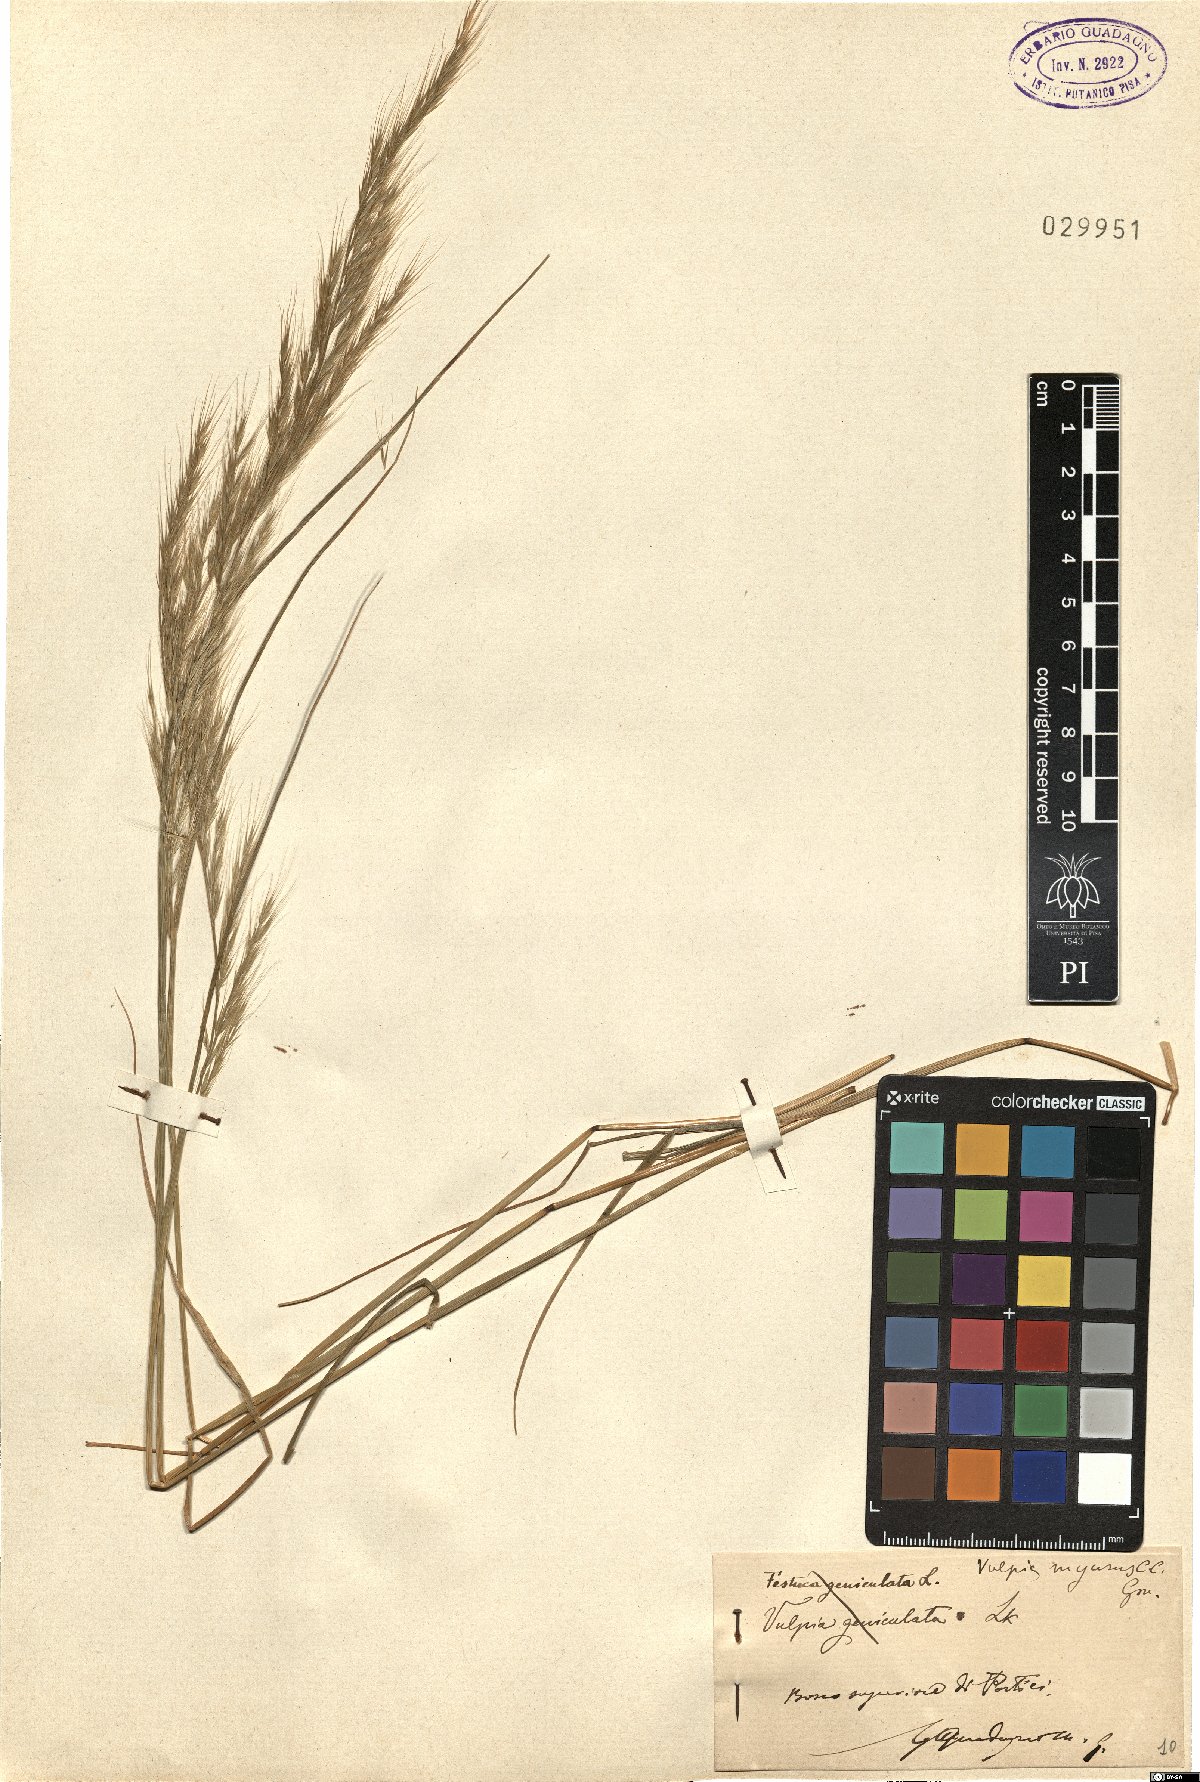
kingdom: Plantae
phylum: Tracheophyta
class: Liliopsida
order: Poales
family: Poaceae
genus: Festuca
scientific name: Festuca myuros
